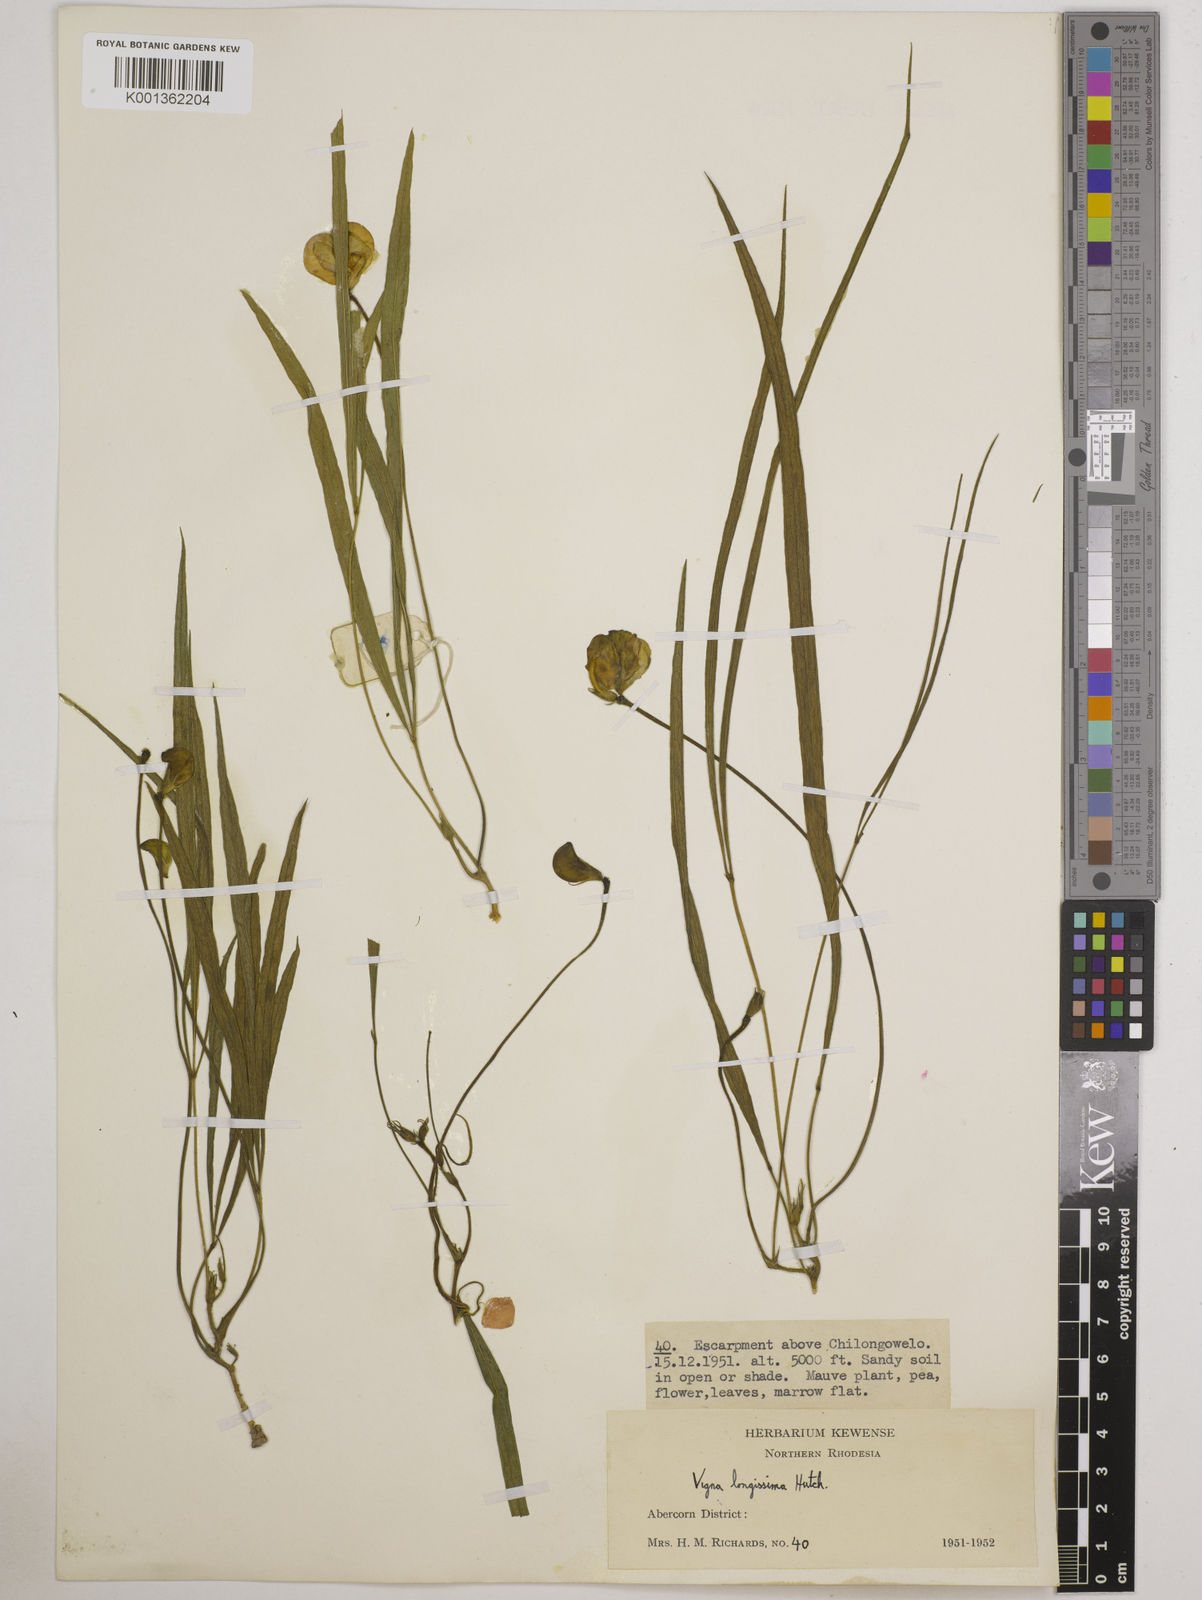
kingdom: Plantae
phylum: Tracheophyta
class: Magnoliopsida
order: Fabales
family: Fabaceae
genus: Vigna
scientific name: Vigna longissima
